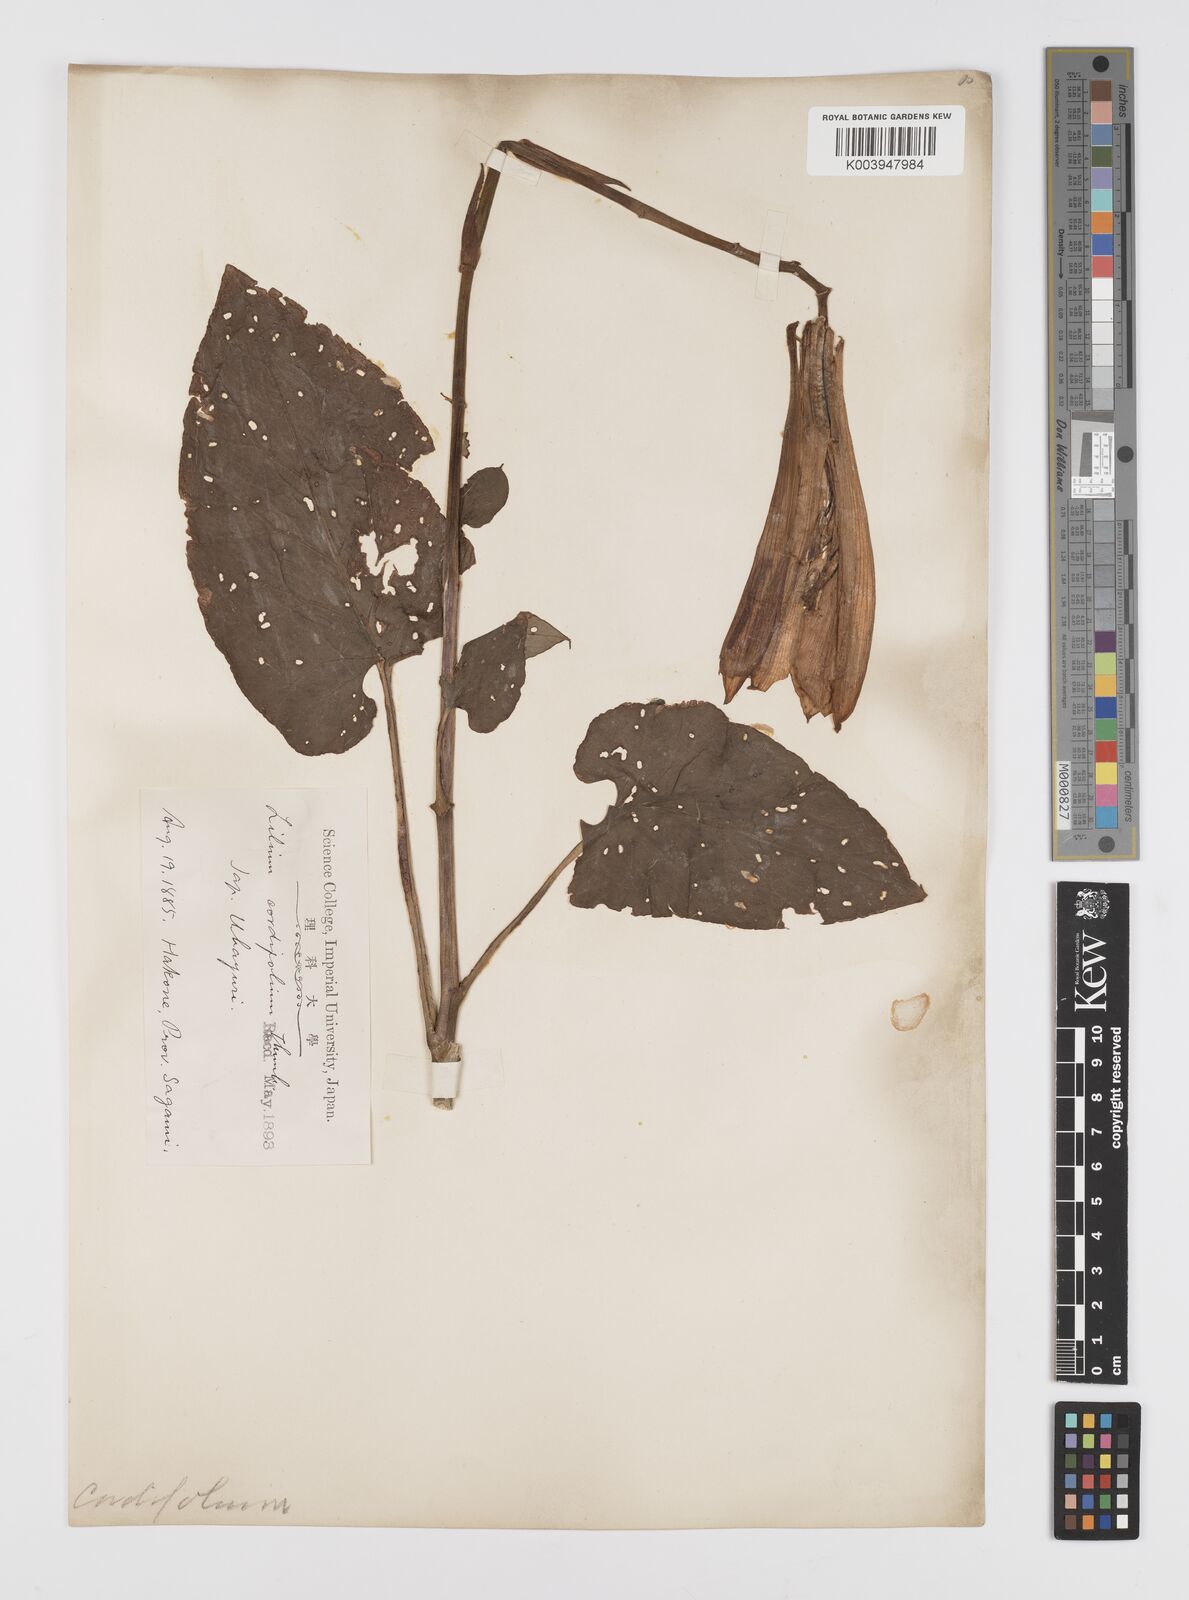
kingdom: Plantae
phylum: Tracheophyta
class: Liliopsida
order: Liliales
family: Liliaceae
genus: Cardiocrinum
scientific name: Cardiocrinum
